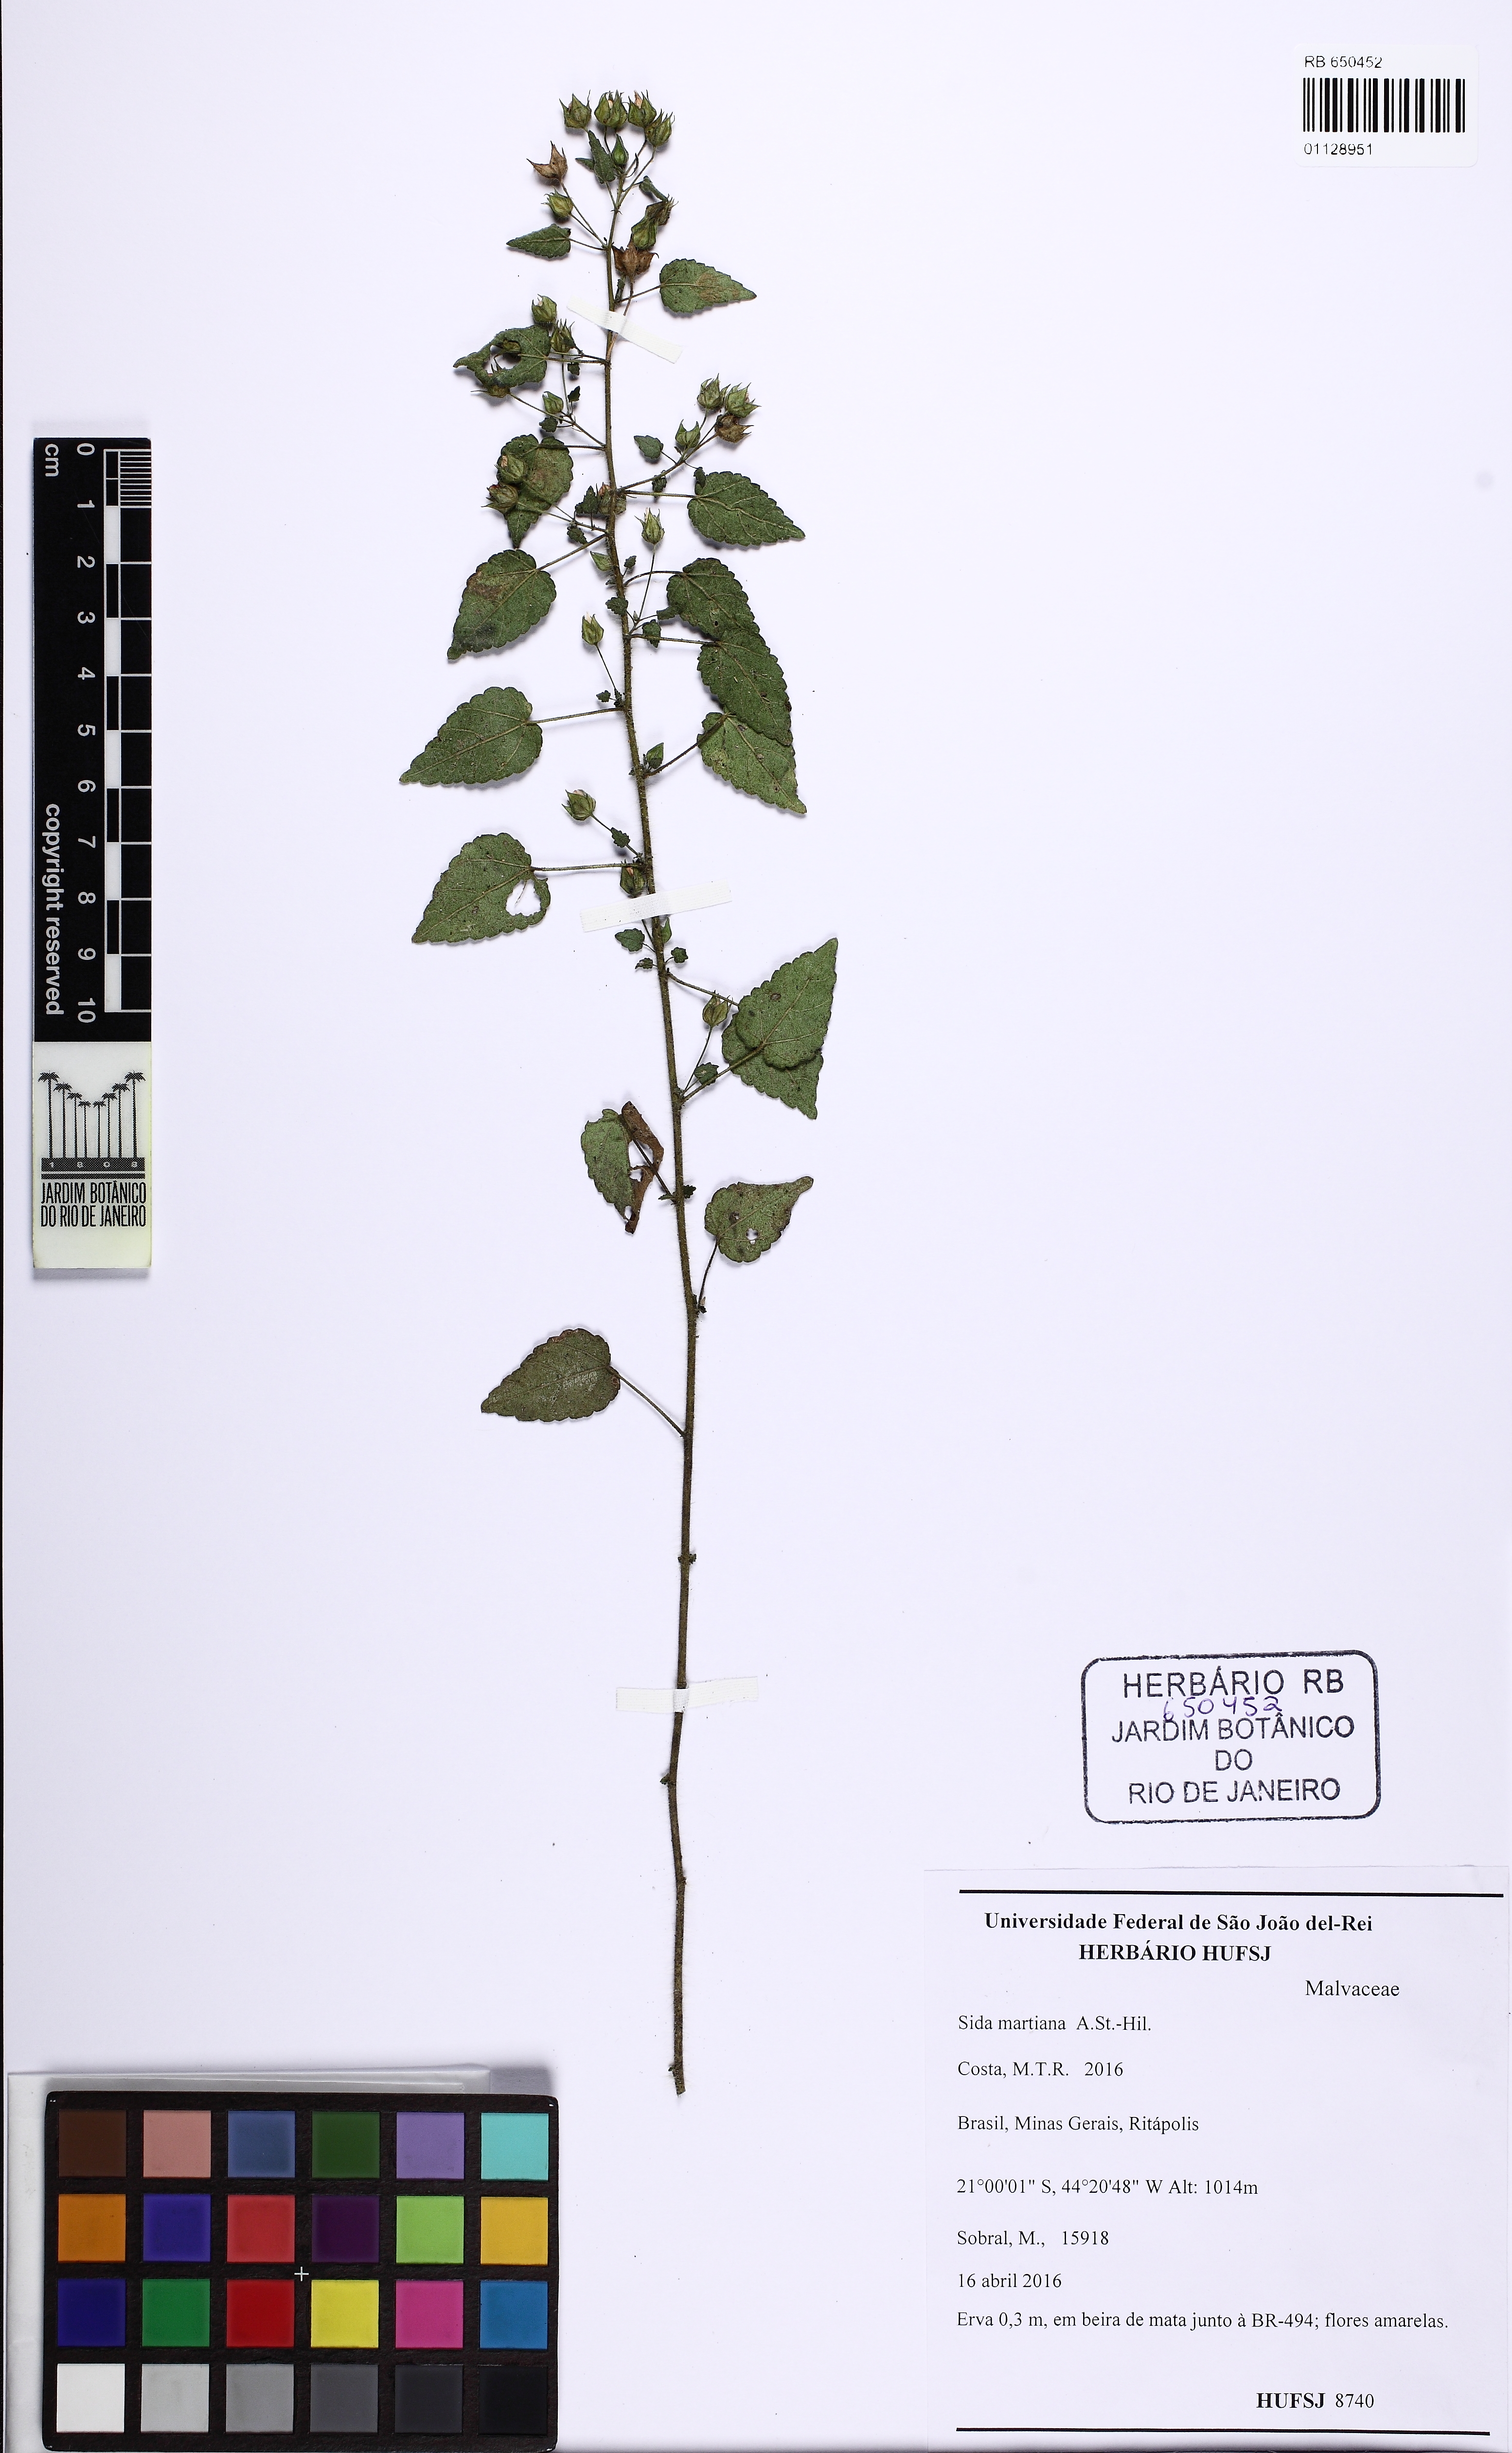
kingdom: Plantae
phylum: Tracheophyta
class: Magnoliopsida
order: Malvales
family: Malvaceae
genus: Sida
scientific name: Sida martiana
